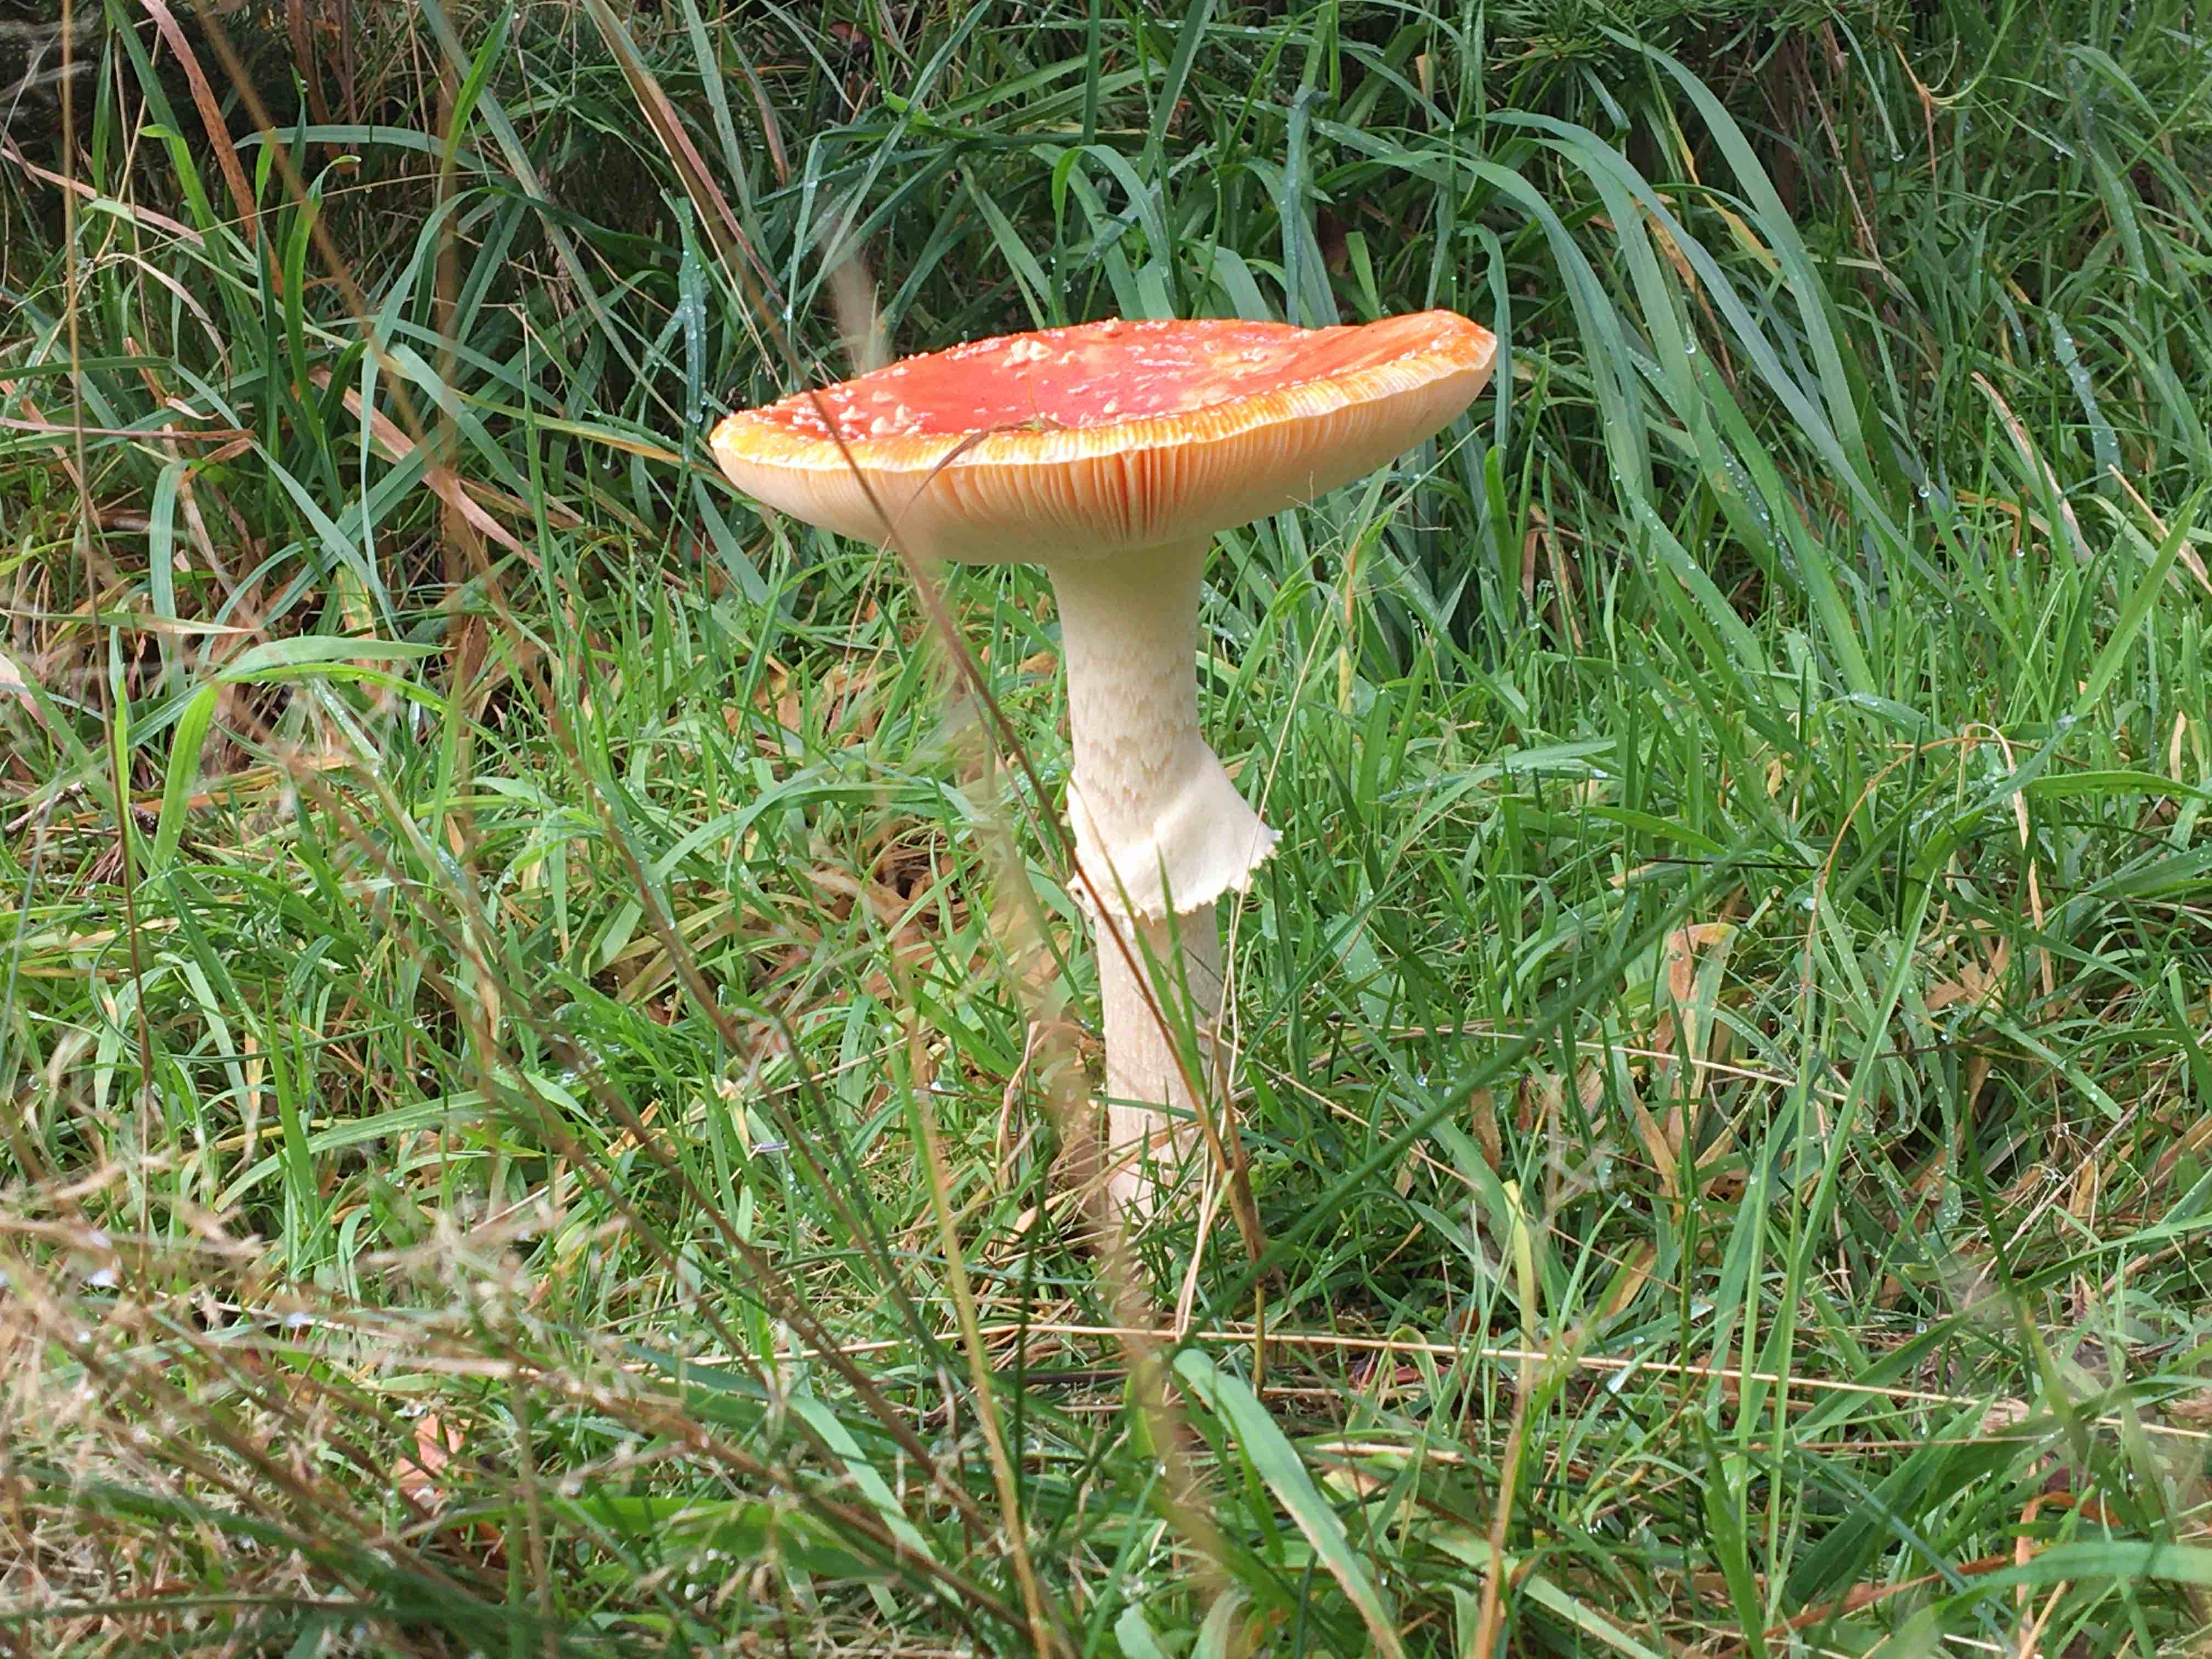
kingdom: Fungi
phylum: Basidiomycota
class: Agaricomycetes
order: Agaricales
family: Amanitaceae
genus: Amanita
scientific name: Amanita muscaria
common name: rød fluesvamp
